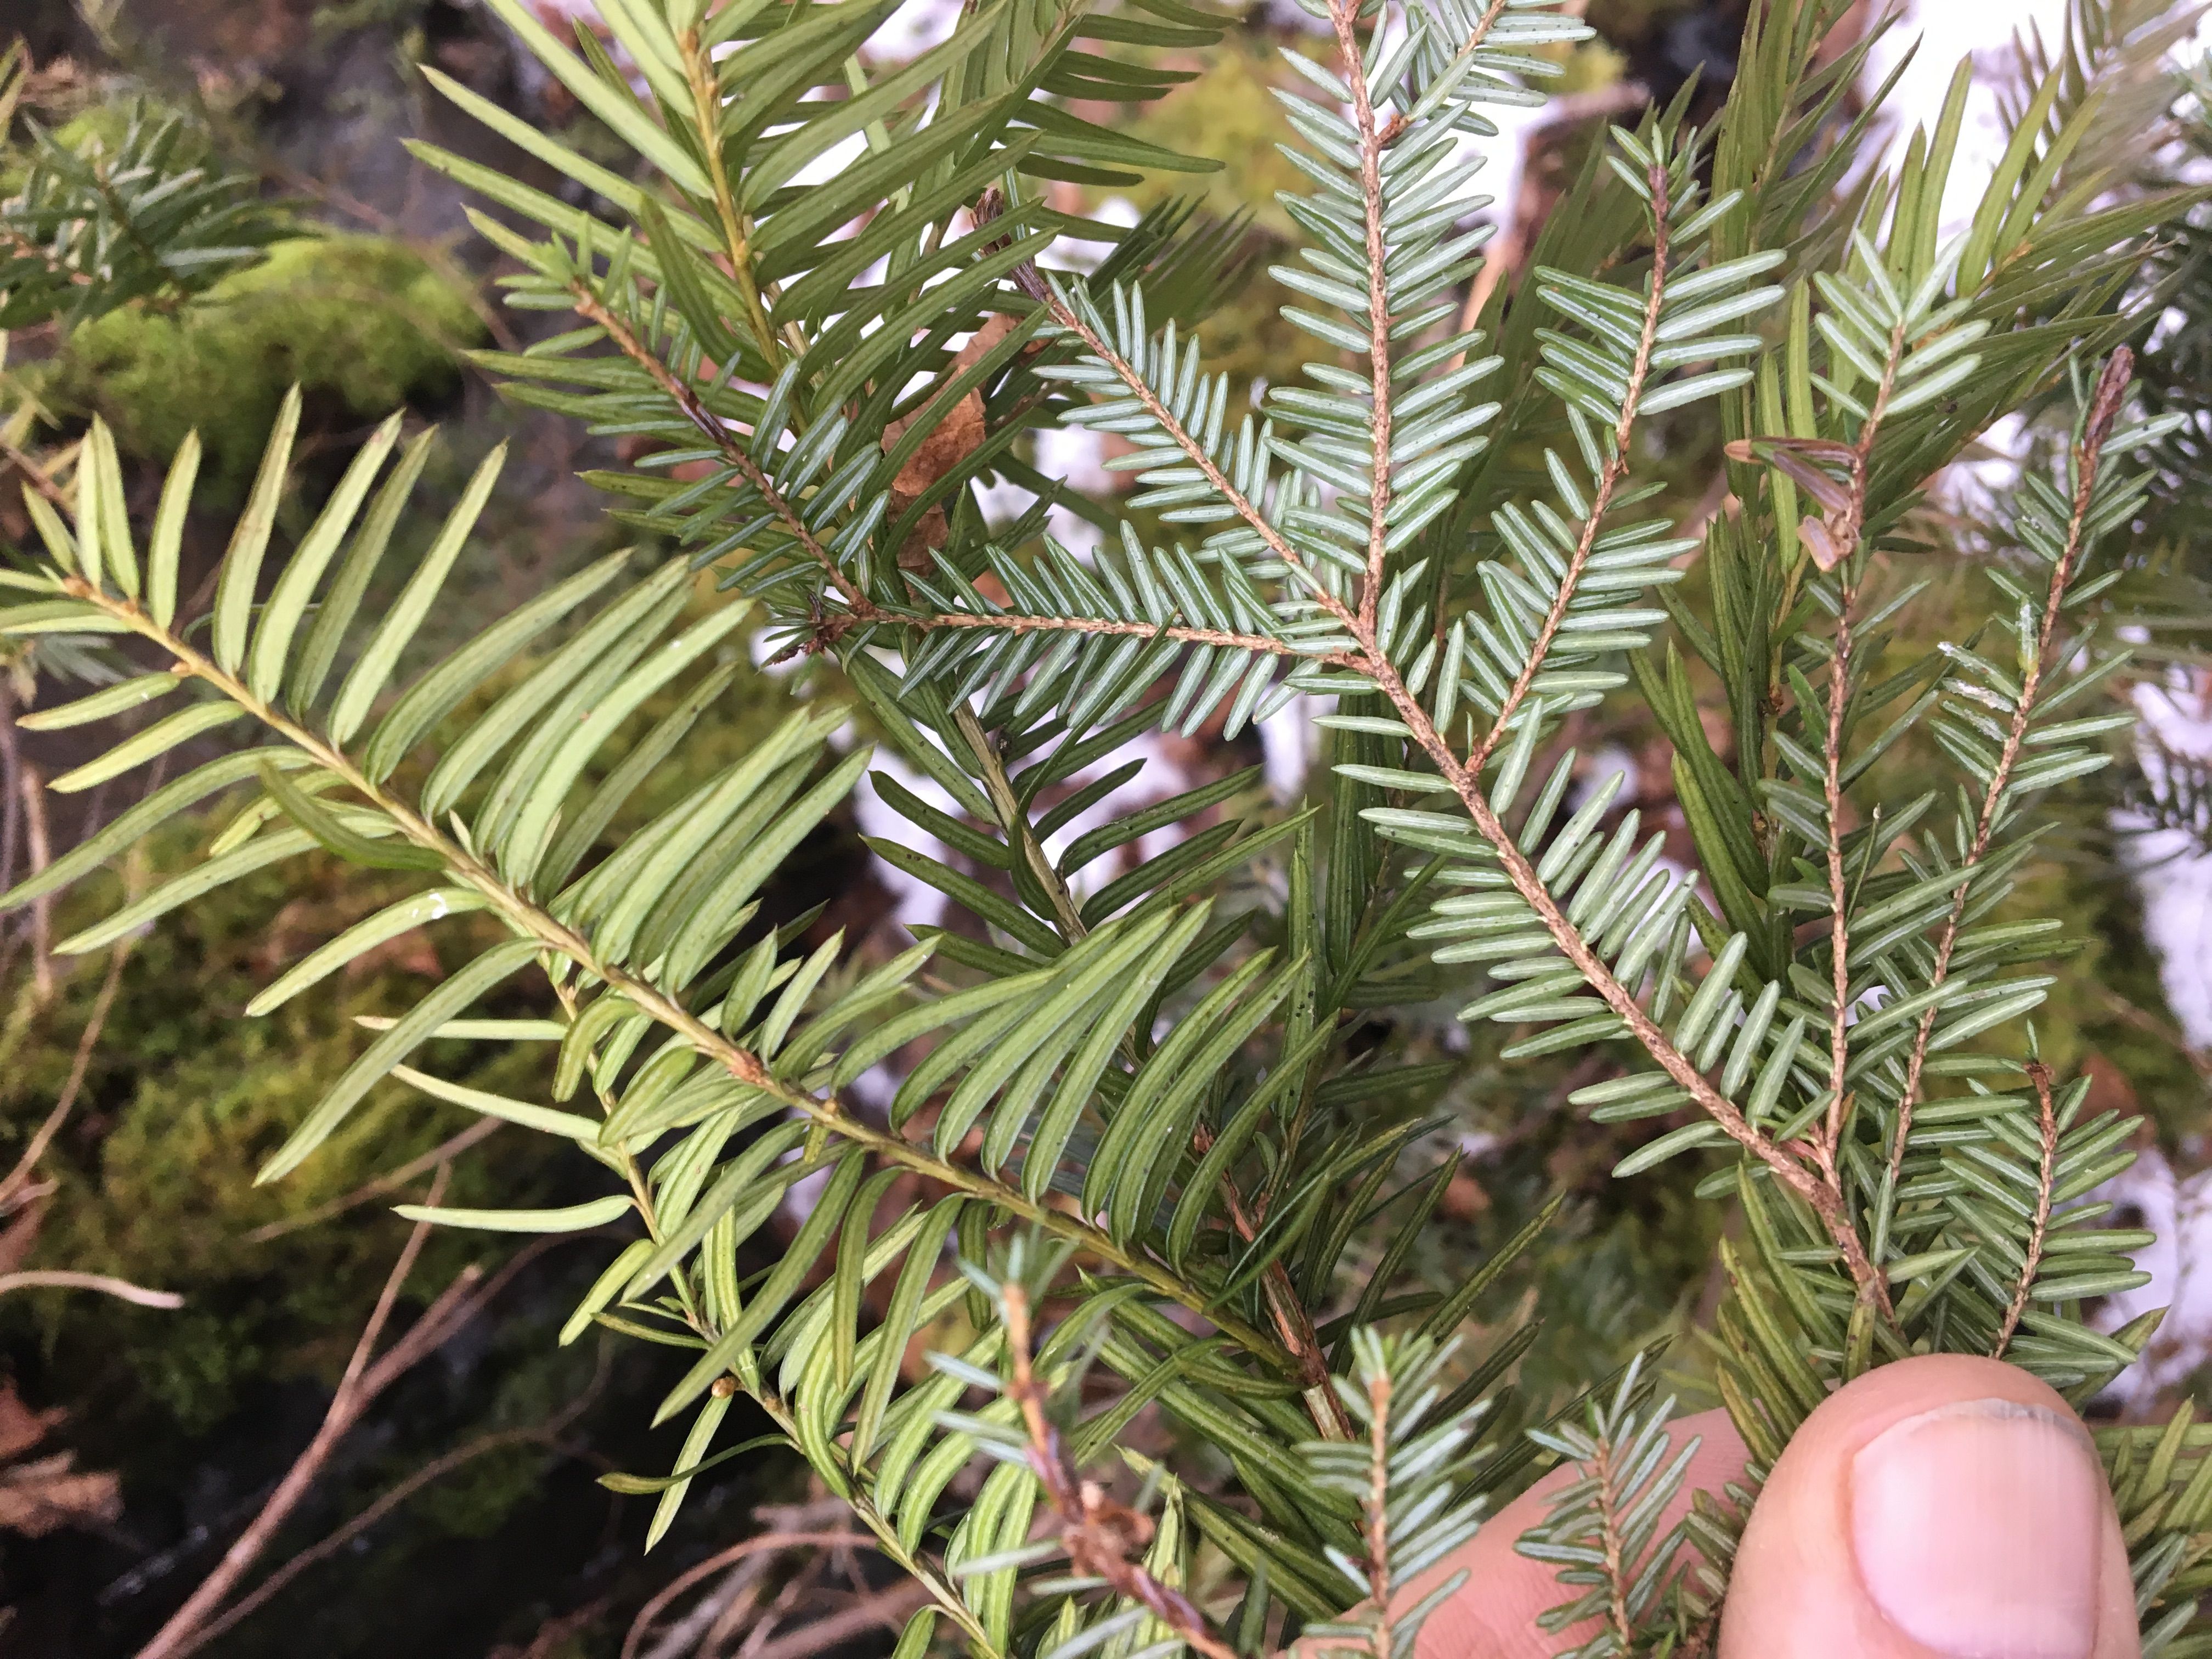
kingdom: Plantae
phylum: Tracheophyta
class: Pinopsida
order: Pinales
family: Taxaceae
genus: Taxus
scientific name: Taxus canadensis
